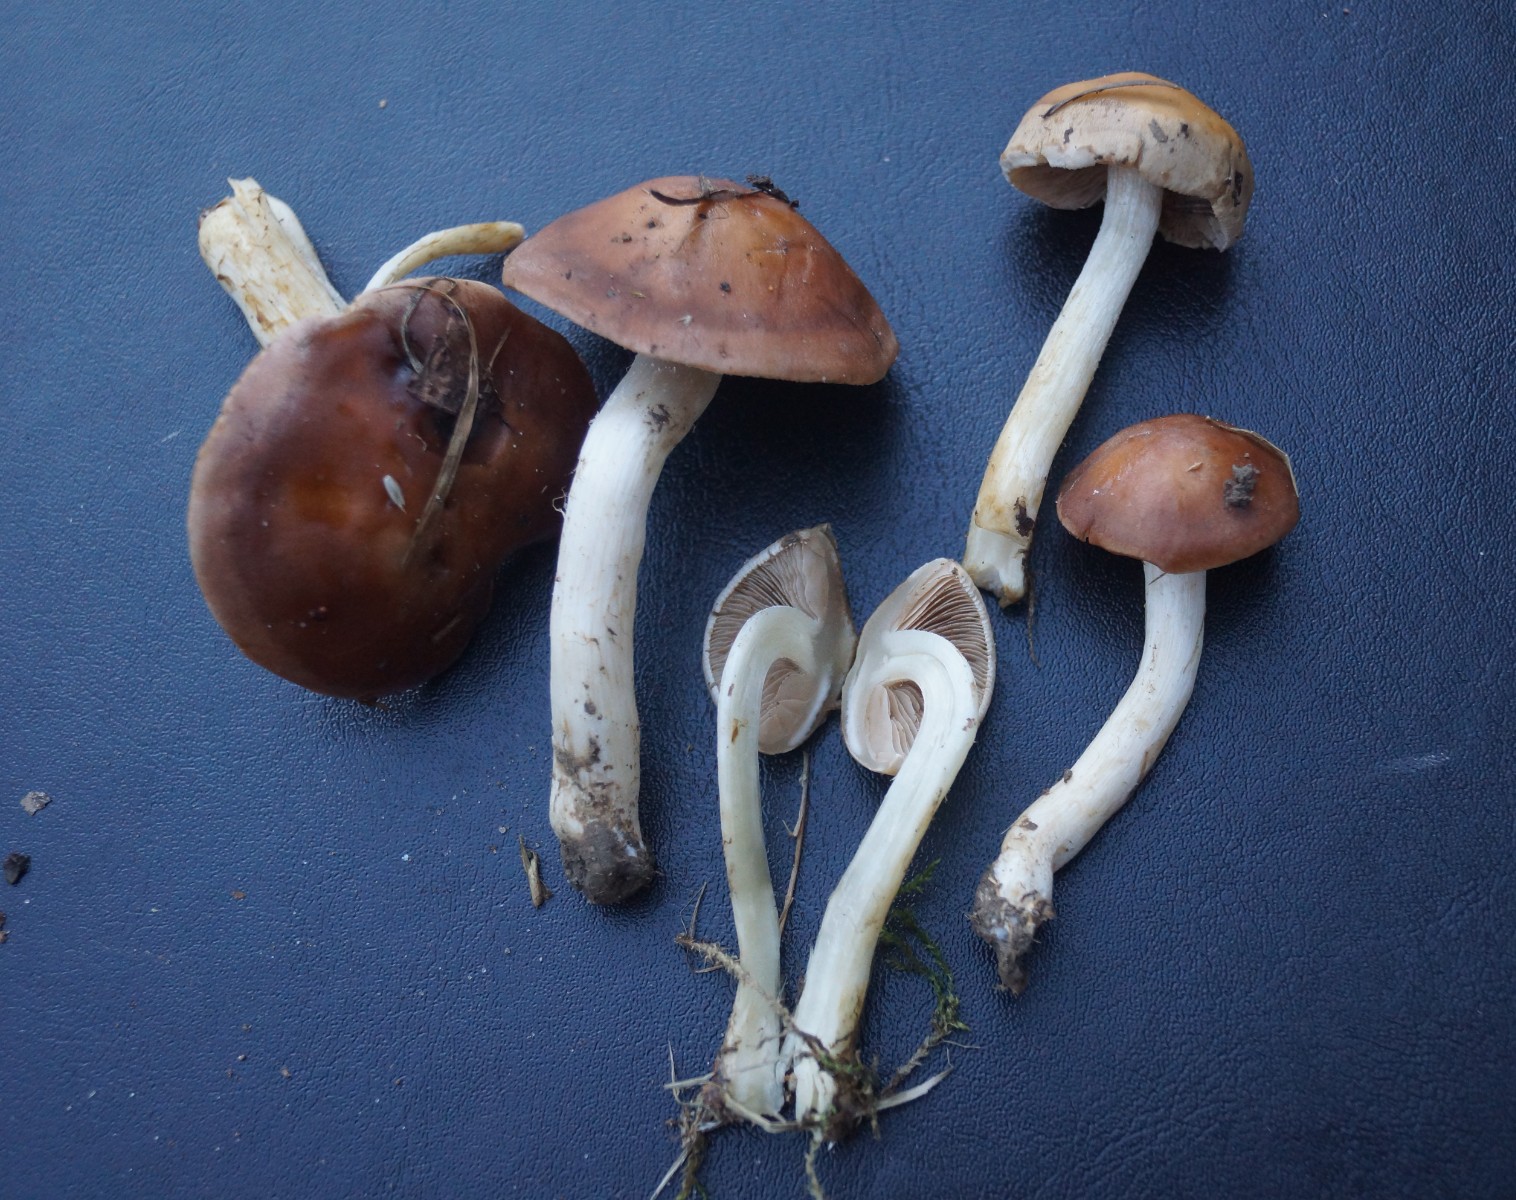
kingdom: Fungi
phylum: Basidiomycota
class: Agaricomycetes
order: Agaricales
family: Hymenogastraceae
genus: Hebeloma
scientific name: Hebeloma theobrominum
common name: rødbrun tåreblad
